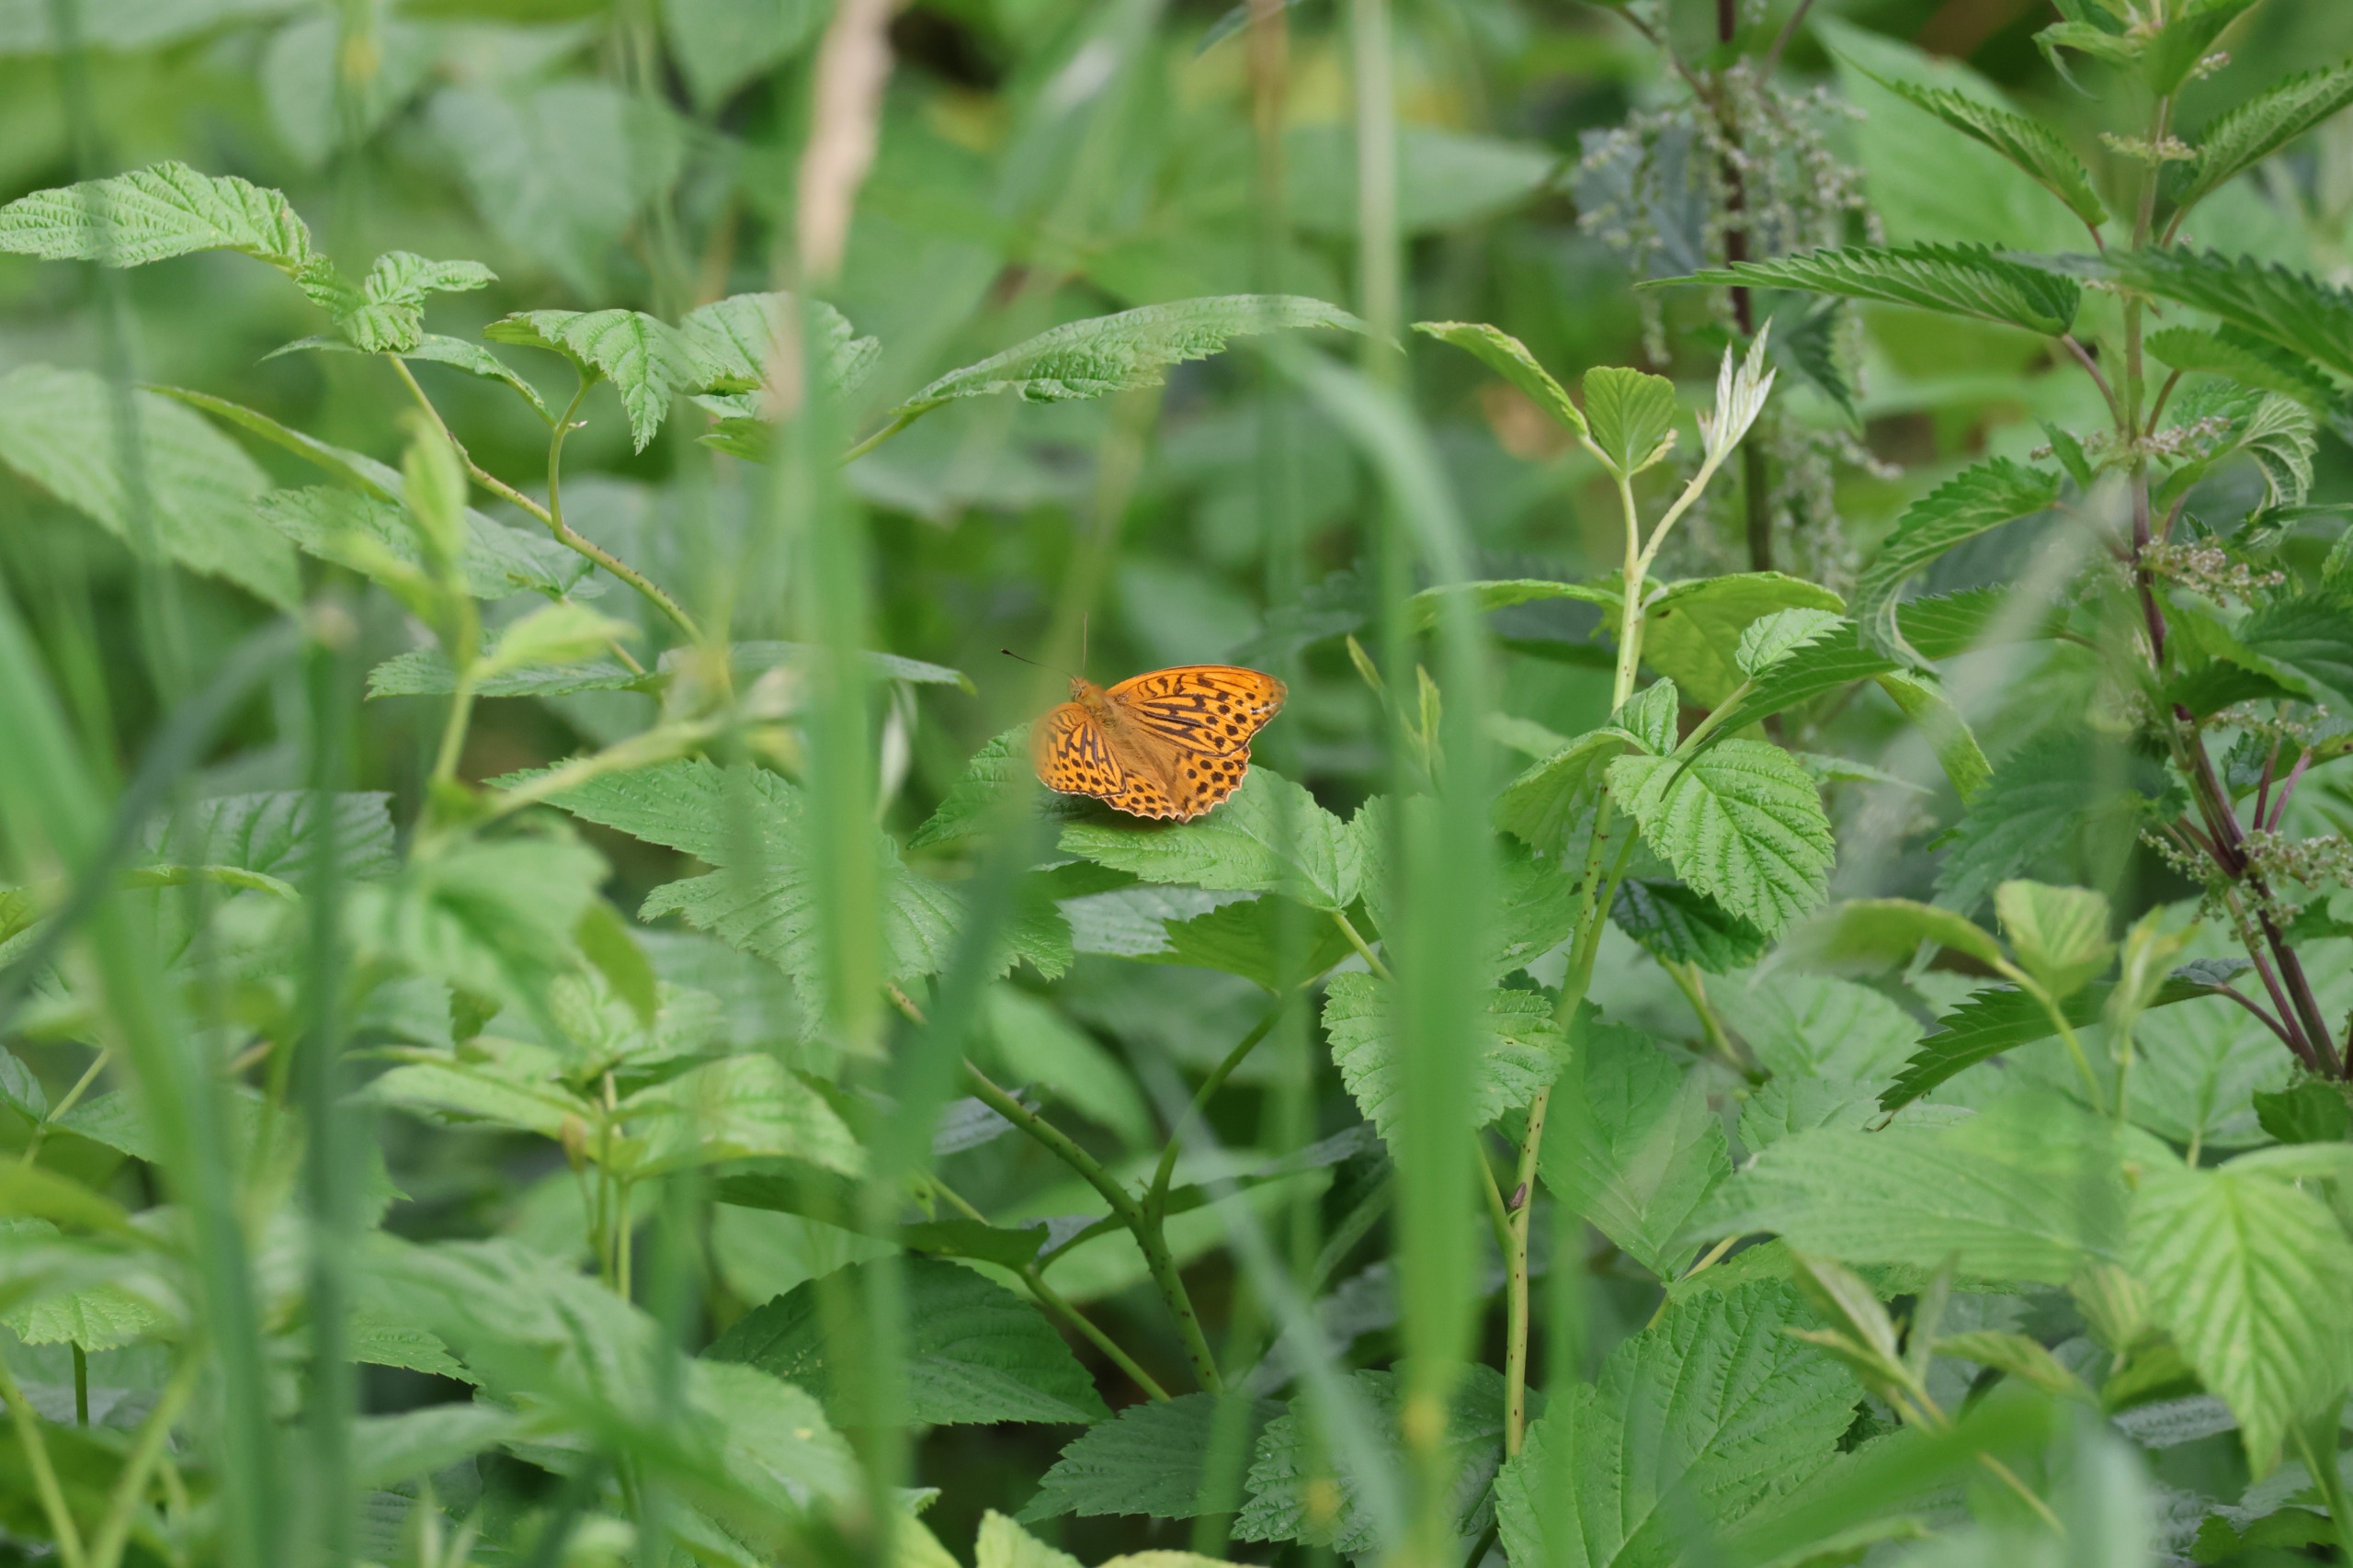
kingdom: Animalia
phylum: Arthropoda
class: Insecta
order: Lepidoptera
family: Nymphalidae
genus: Argynnis
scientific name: Argynnis paphia
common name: Kejserkåbe
